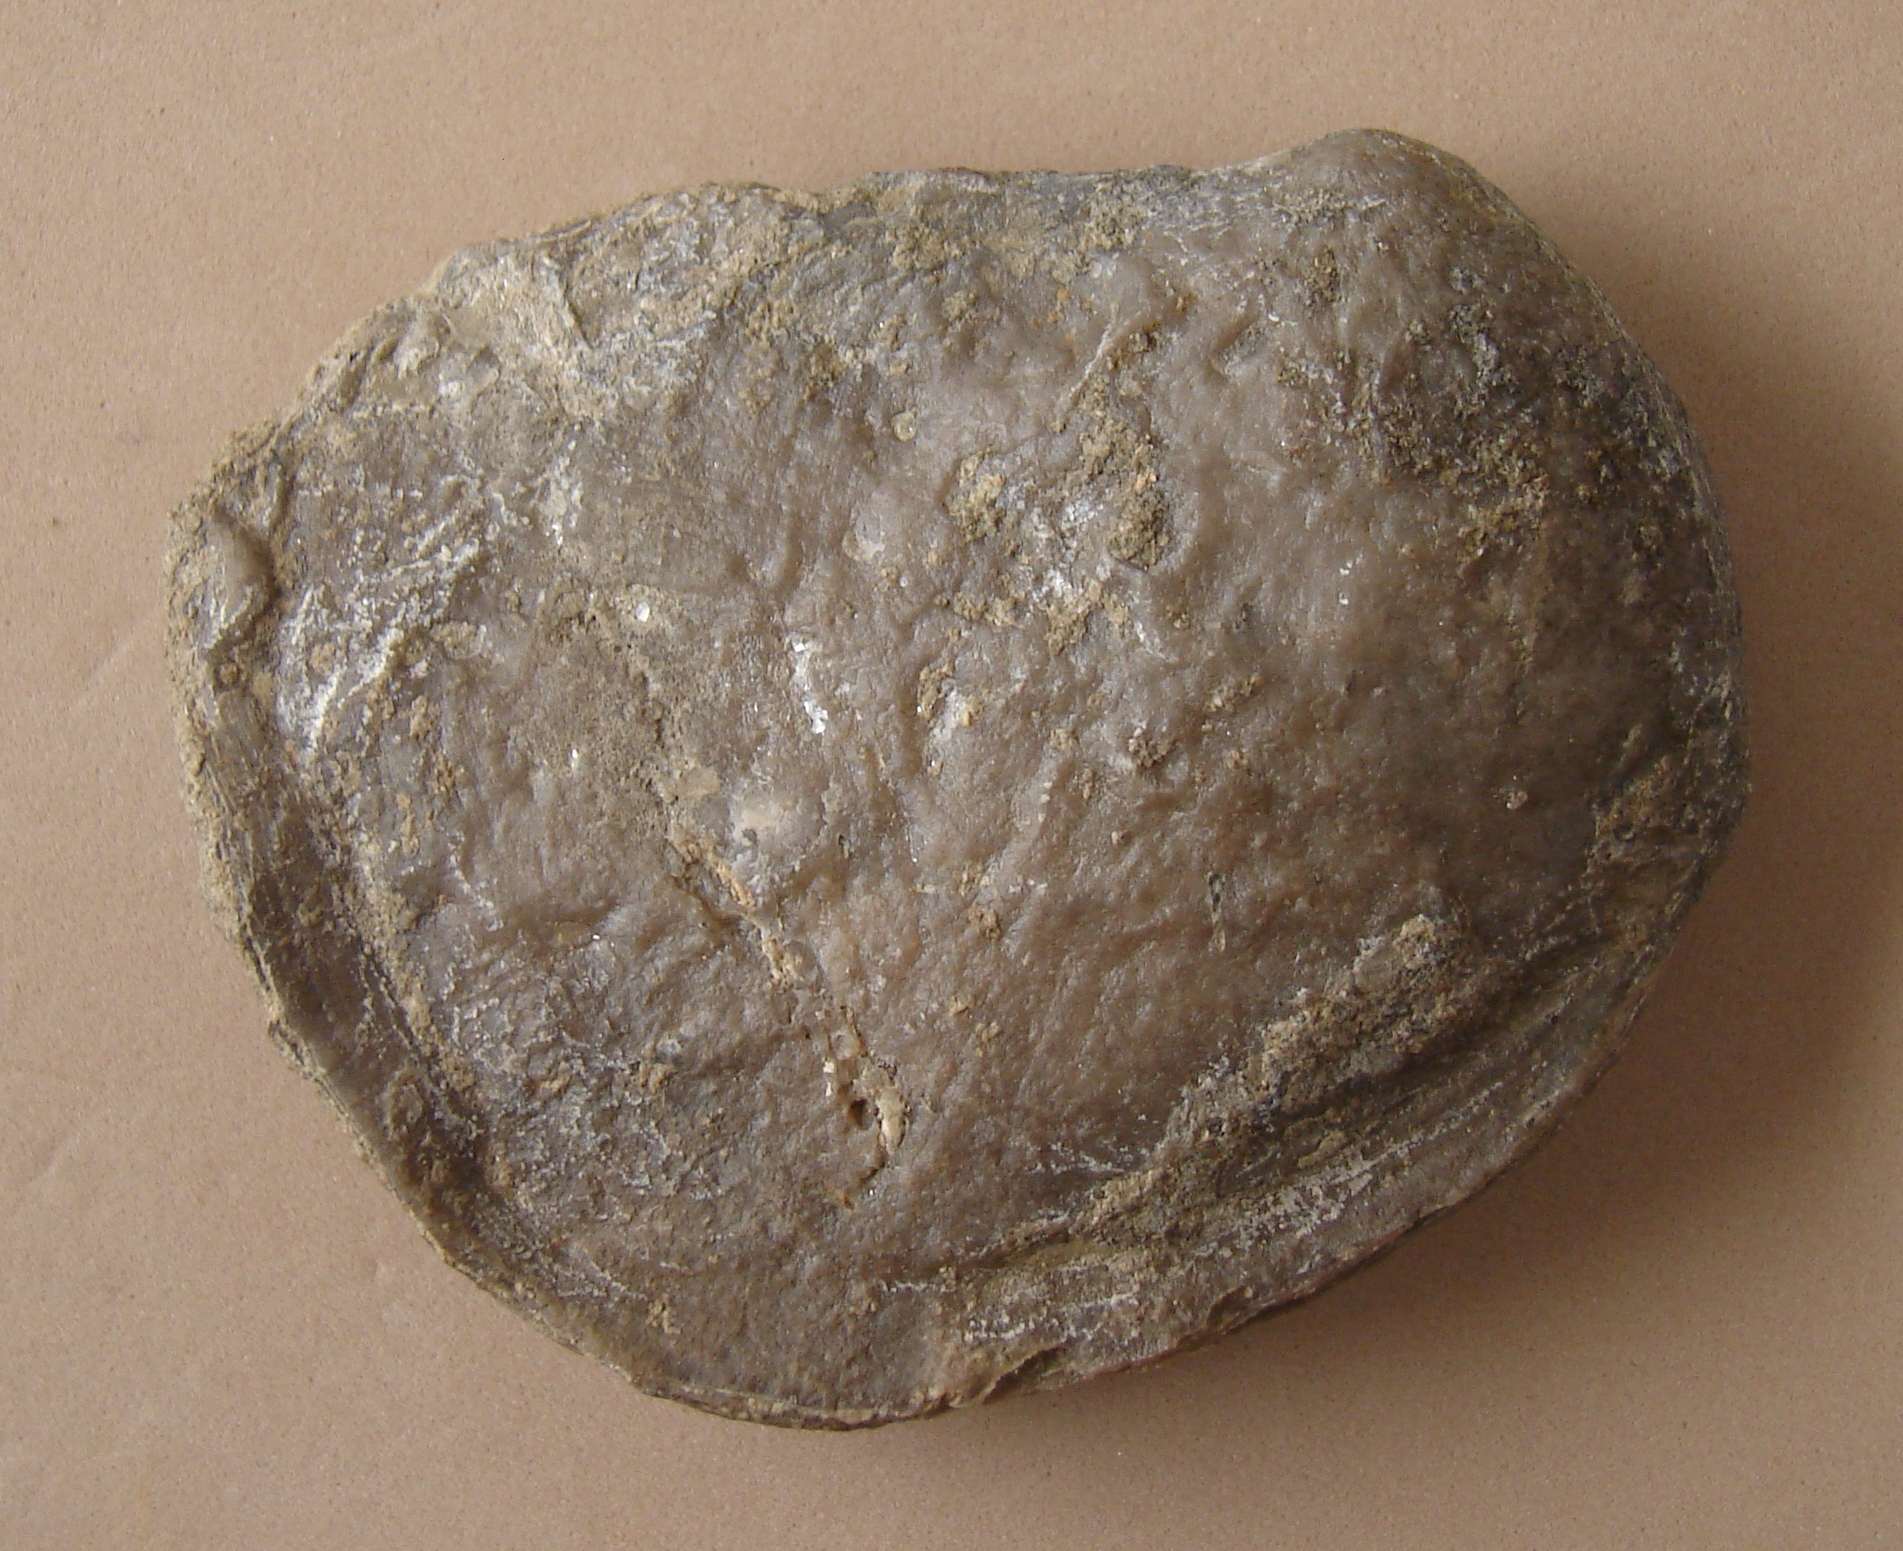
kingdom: Animalia
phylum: Mollusca
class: Bivalvia
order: Ostreida
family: Flemingostreidae
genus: Liostrea
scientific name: Liostrea hisingeri
